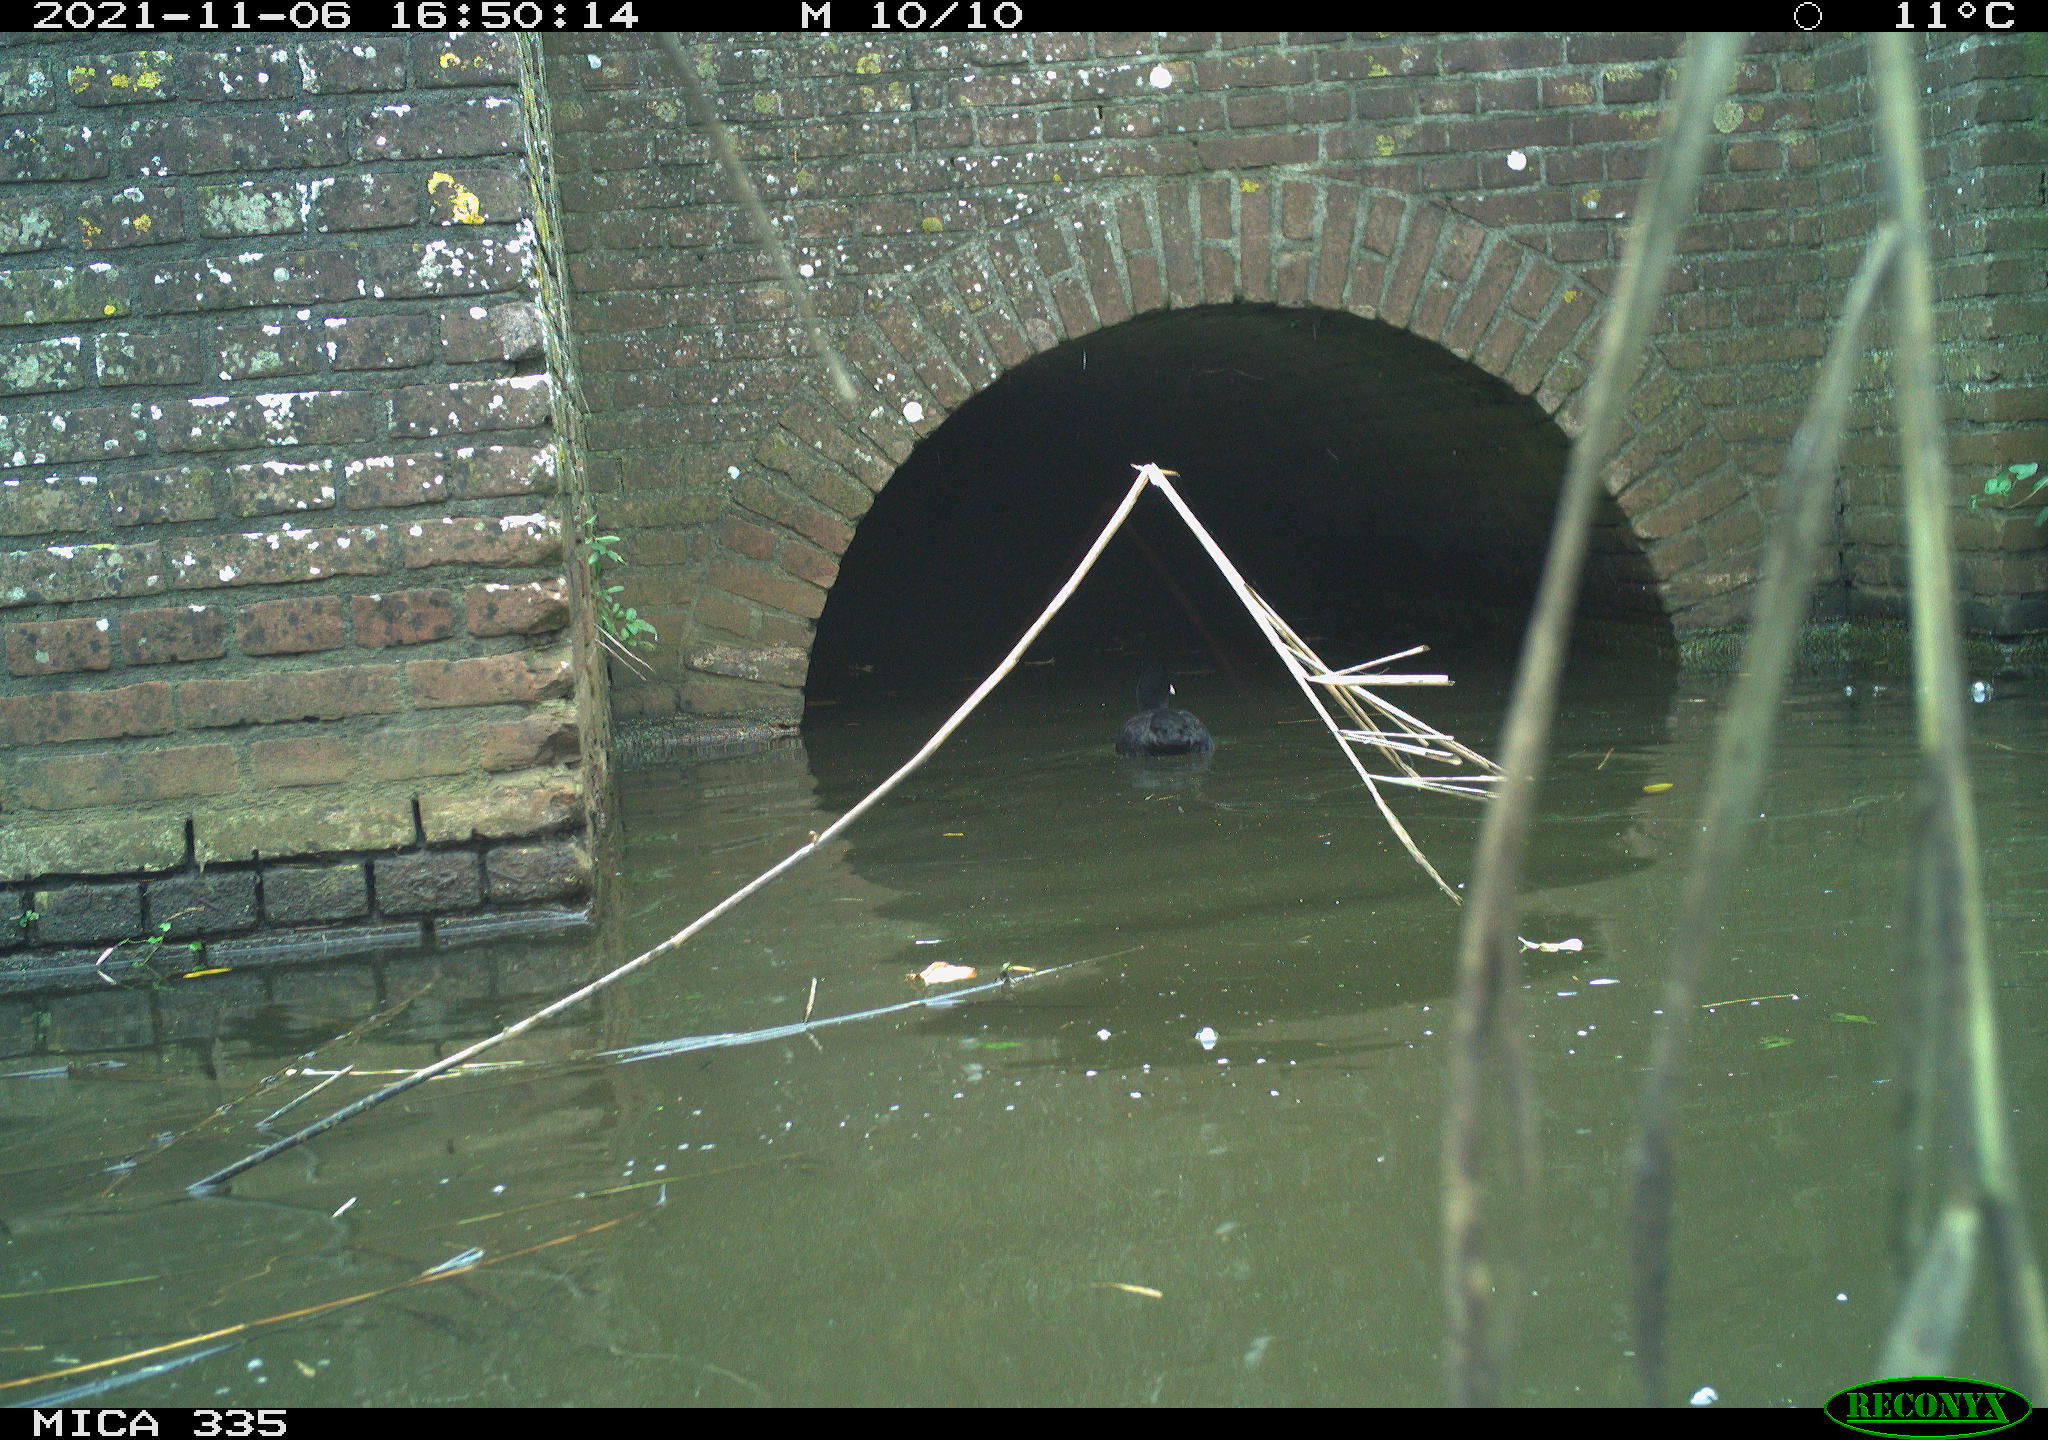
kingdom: Animalia
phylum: Chordata
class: Aves
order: Gruiformes
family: Rallidae
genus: Fulica
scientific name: Fulica atra
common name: Eurasian coot
